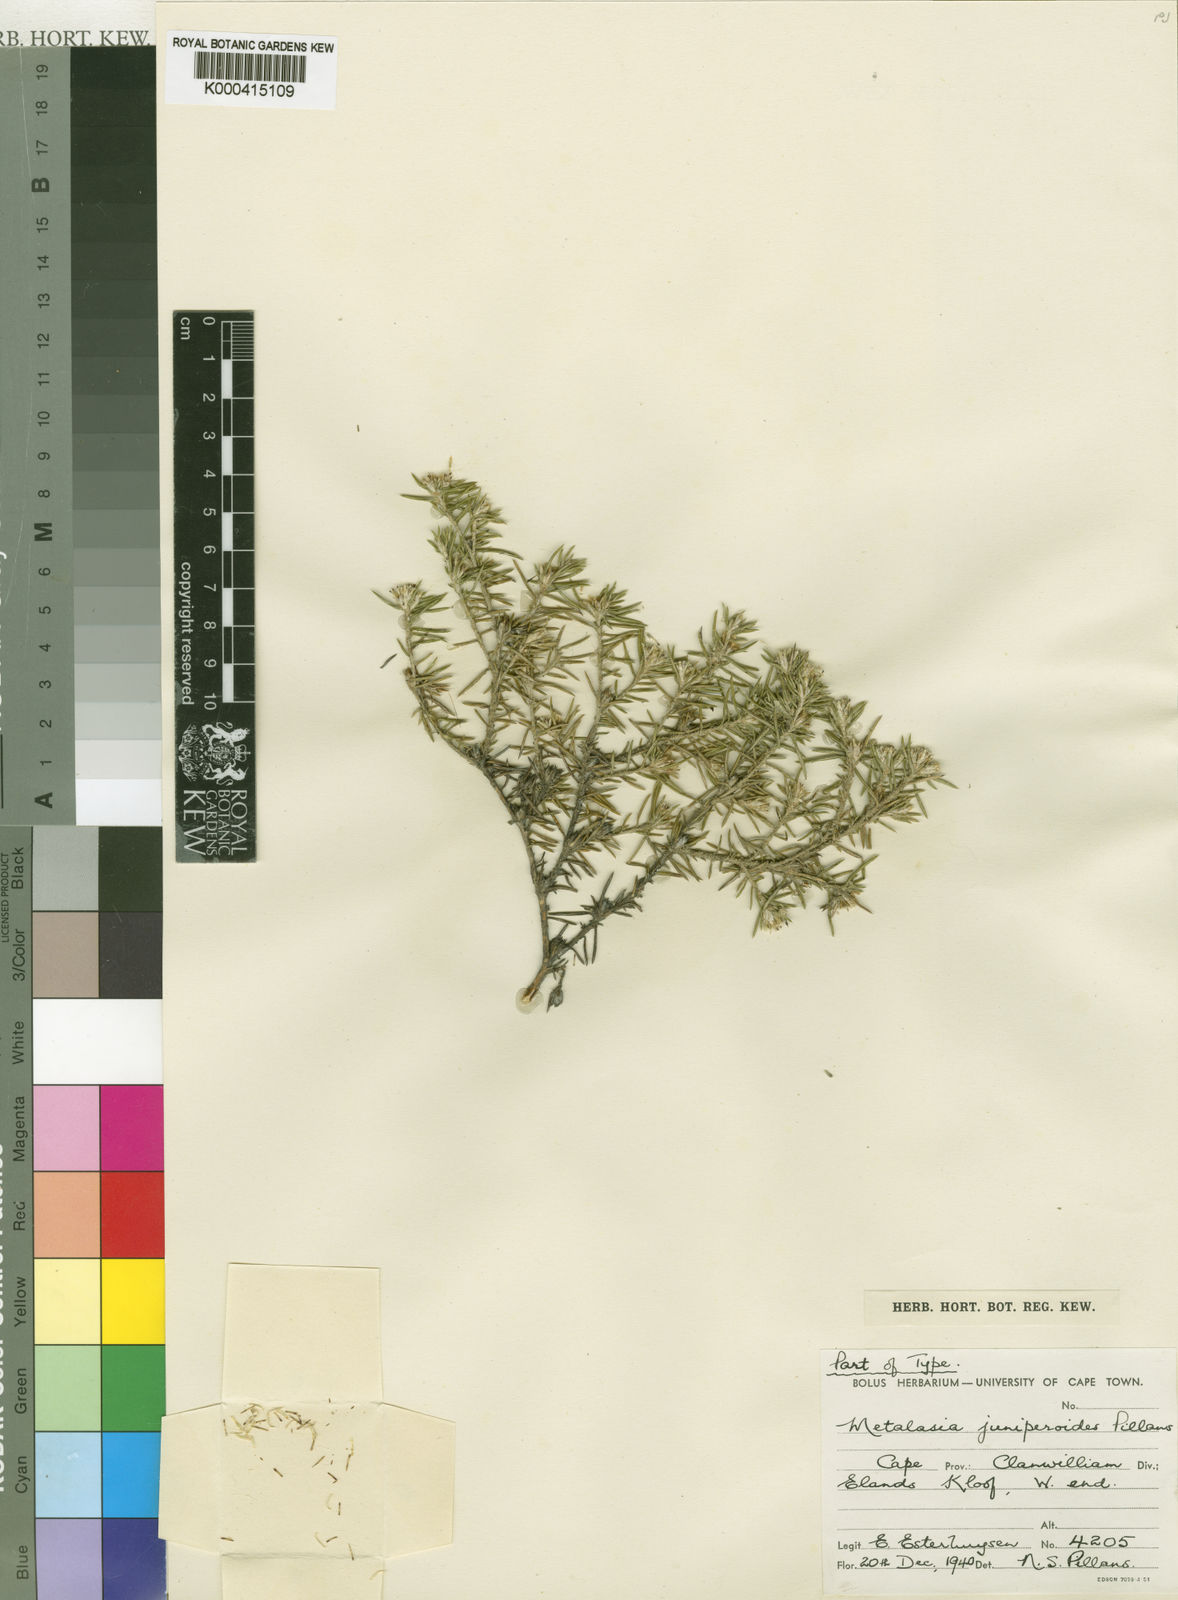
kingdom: Plantae
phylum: Tracheophyta
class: Magnoliopsida
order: Asterales
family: Asteraceae
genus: Metalasia
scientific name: Metalasia juniperoides
